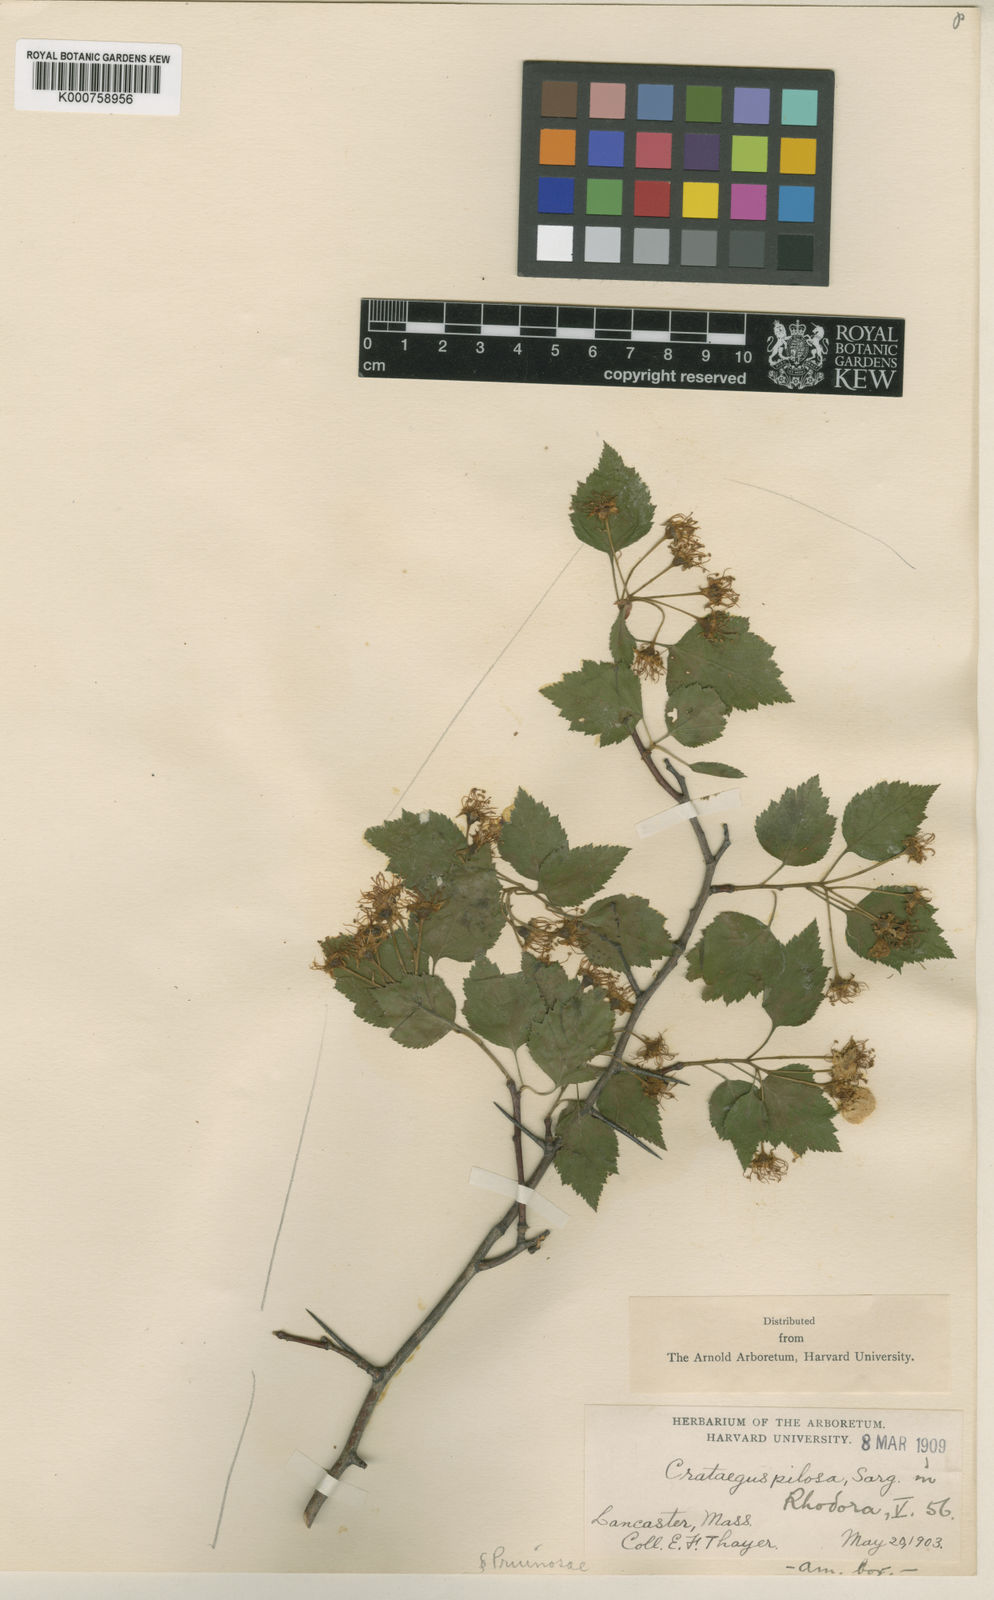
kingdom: Plantae
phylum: Tracheophyta
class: Magnoliopsida
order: Rosales
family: Rosaceae
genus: Crataegus
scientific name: Crataegus pilosa
